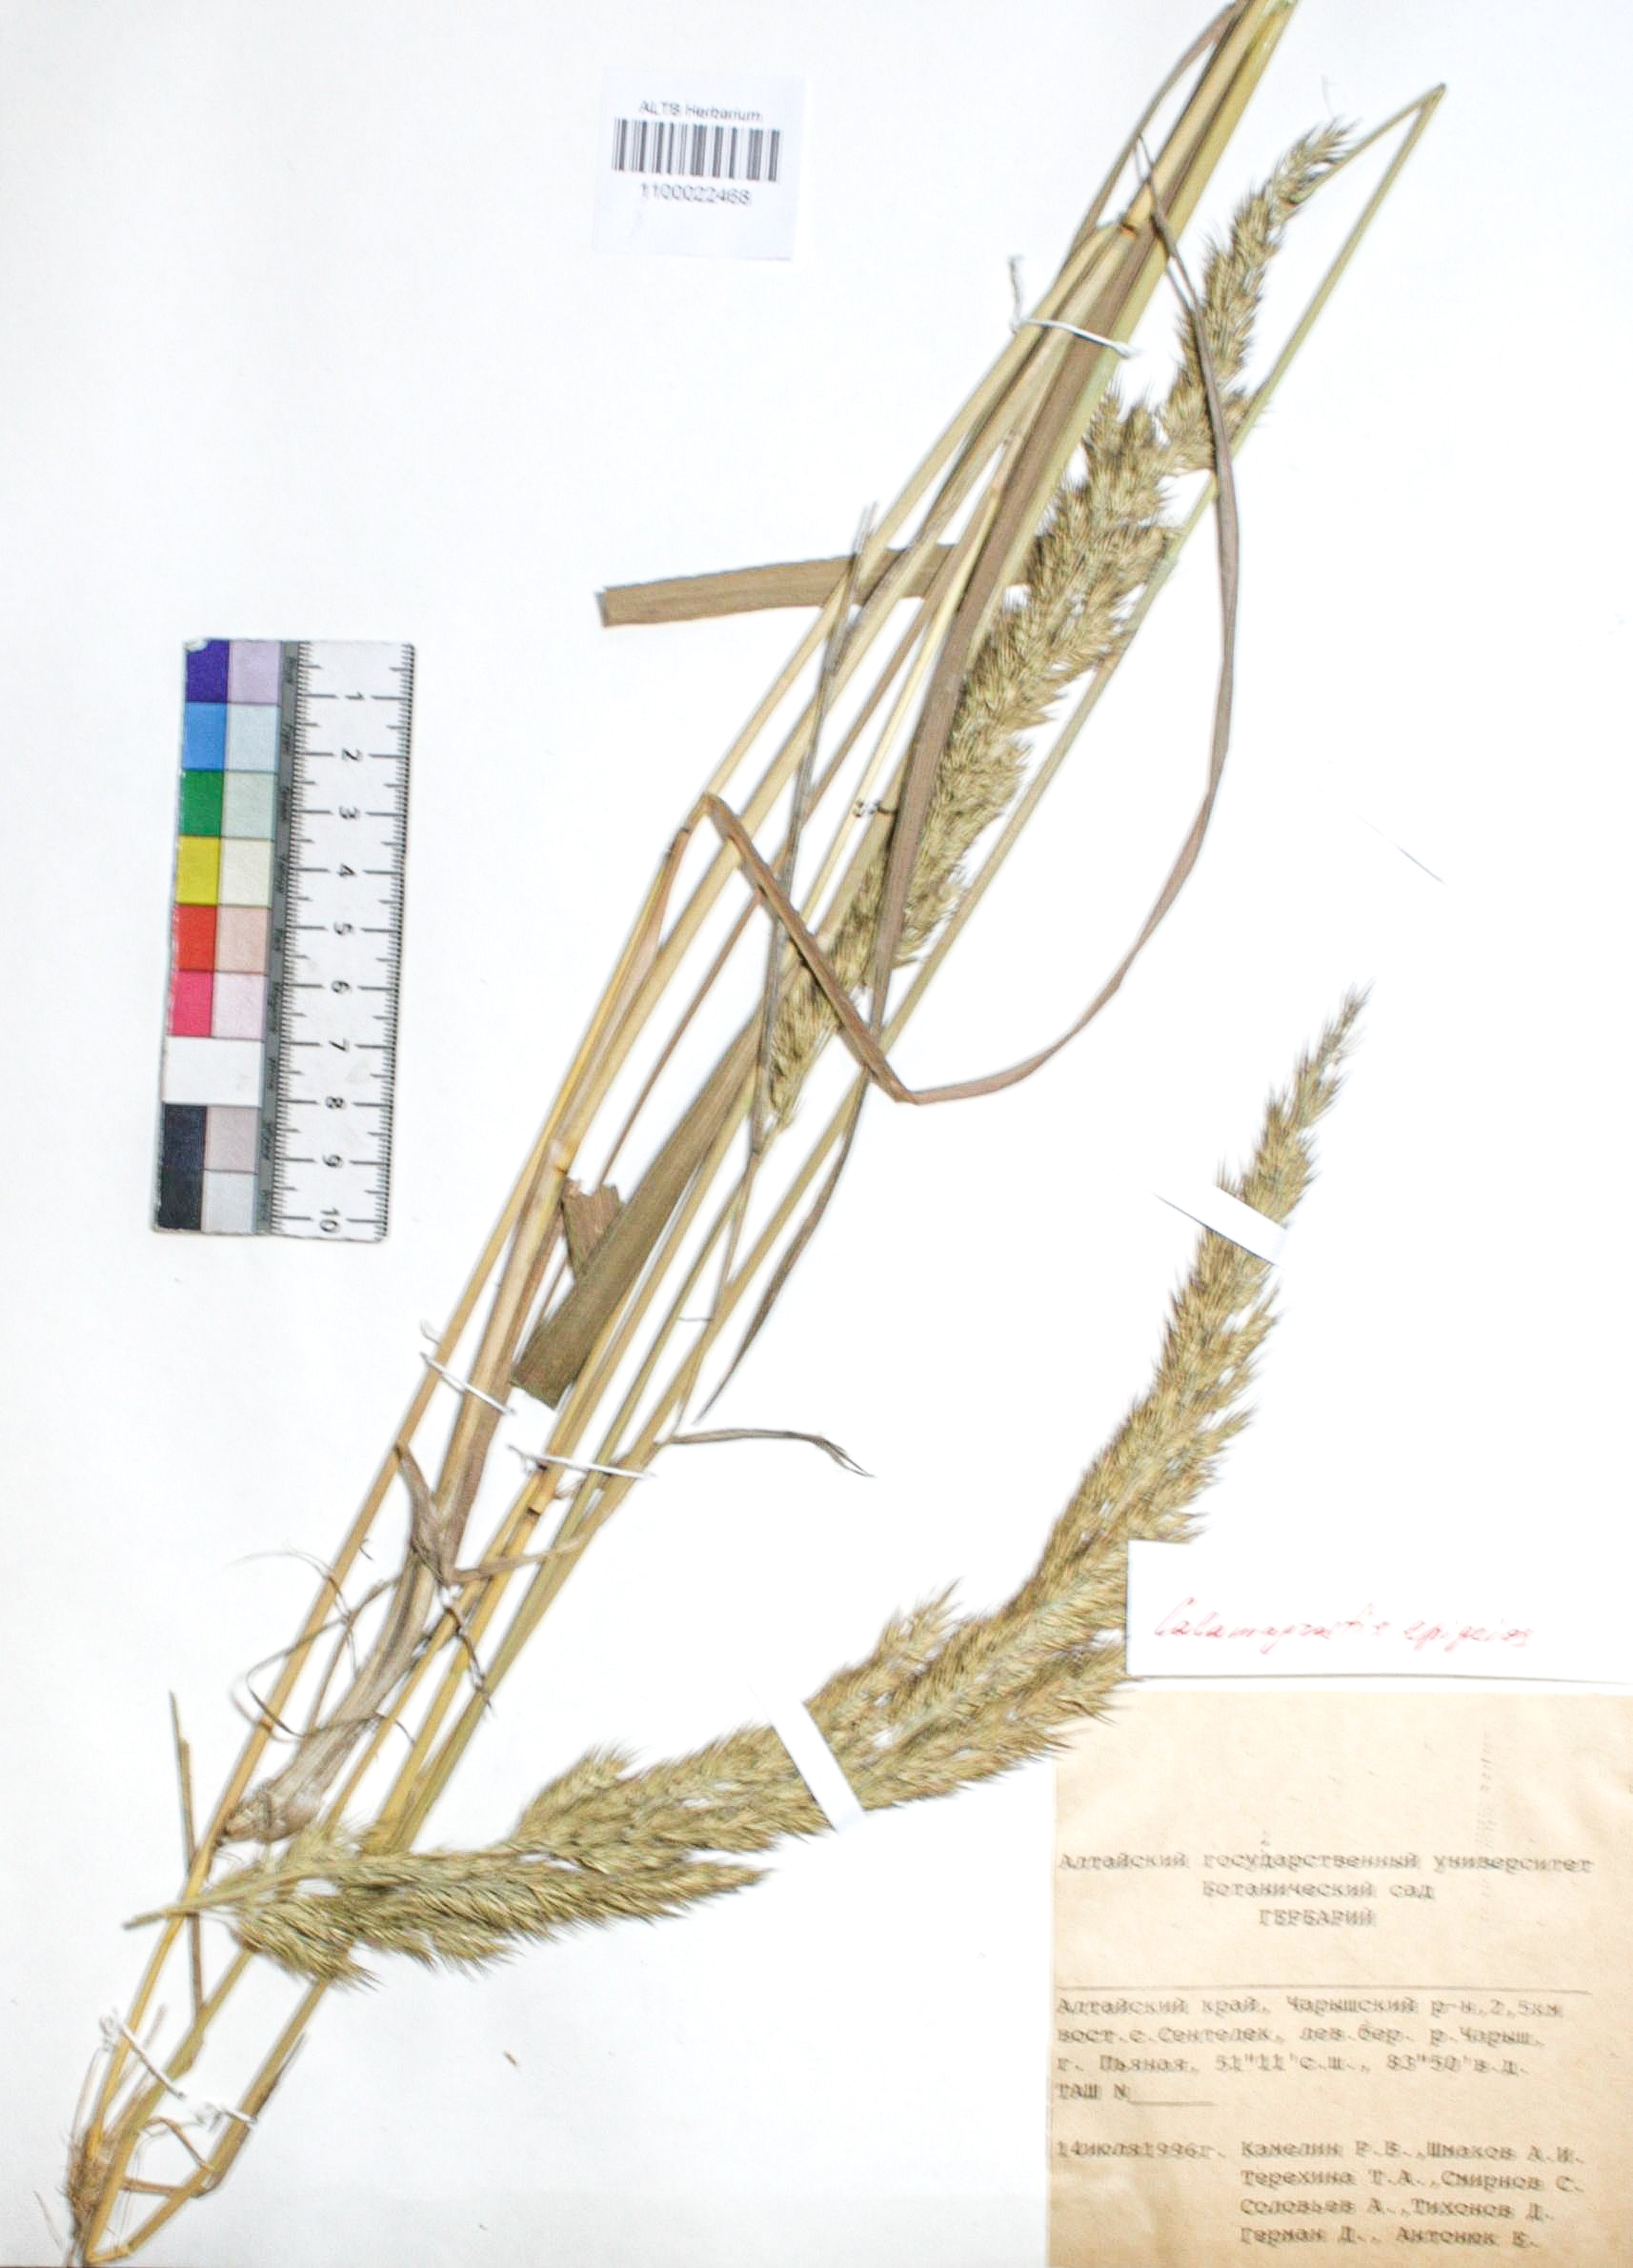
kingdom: Plantae
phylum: Tracheophyta
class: Liliopsida
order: Poales
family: Poaceae
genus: Calamagrostis
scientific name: Calamagrostis macrolepis
